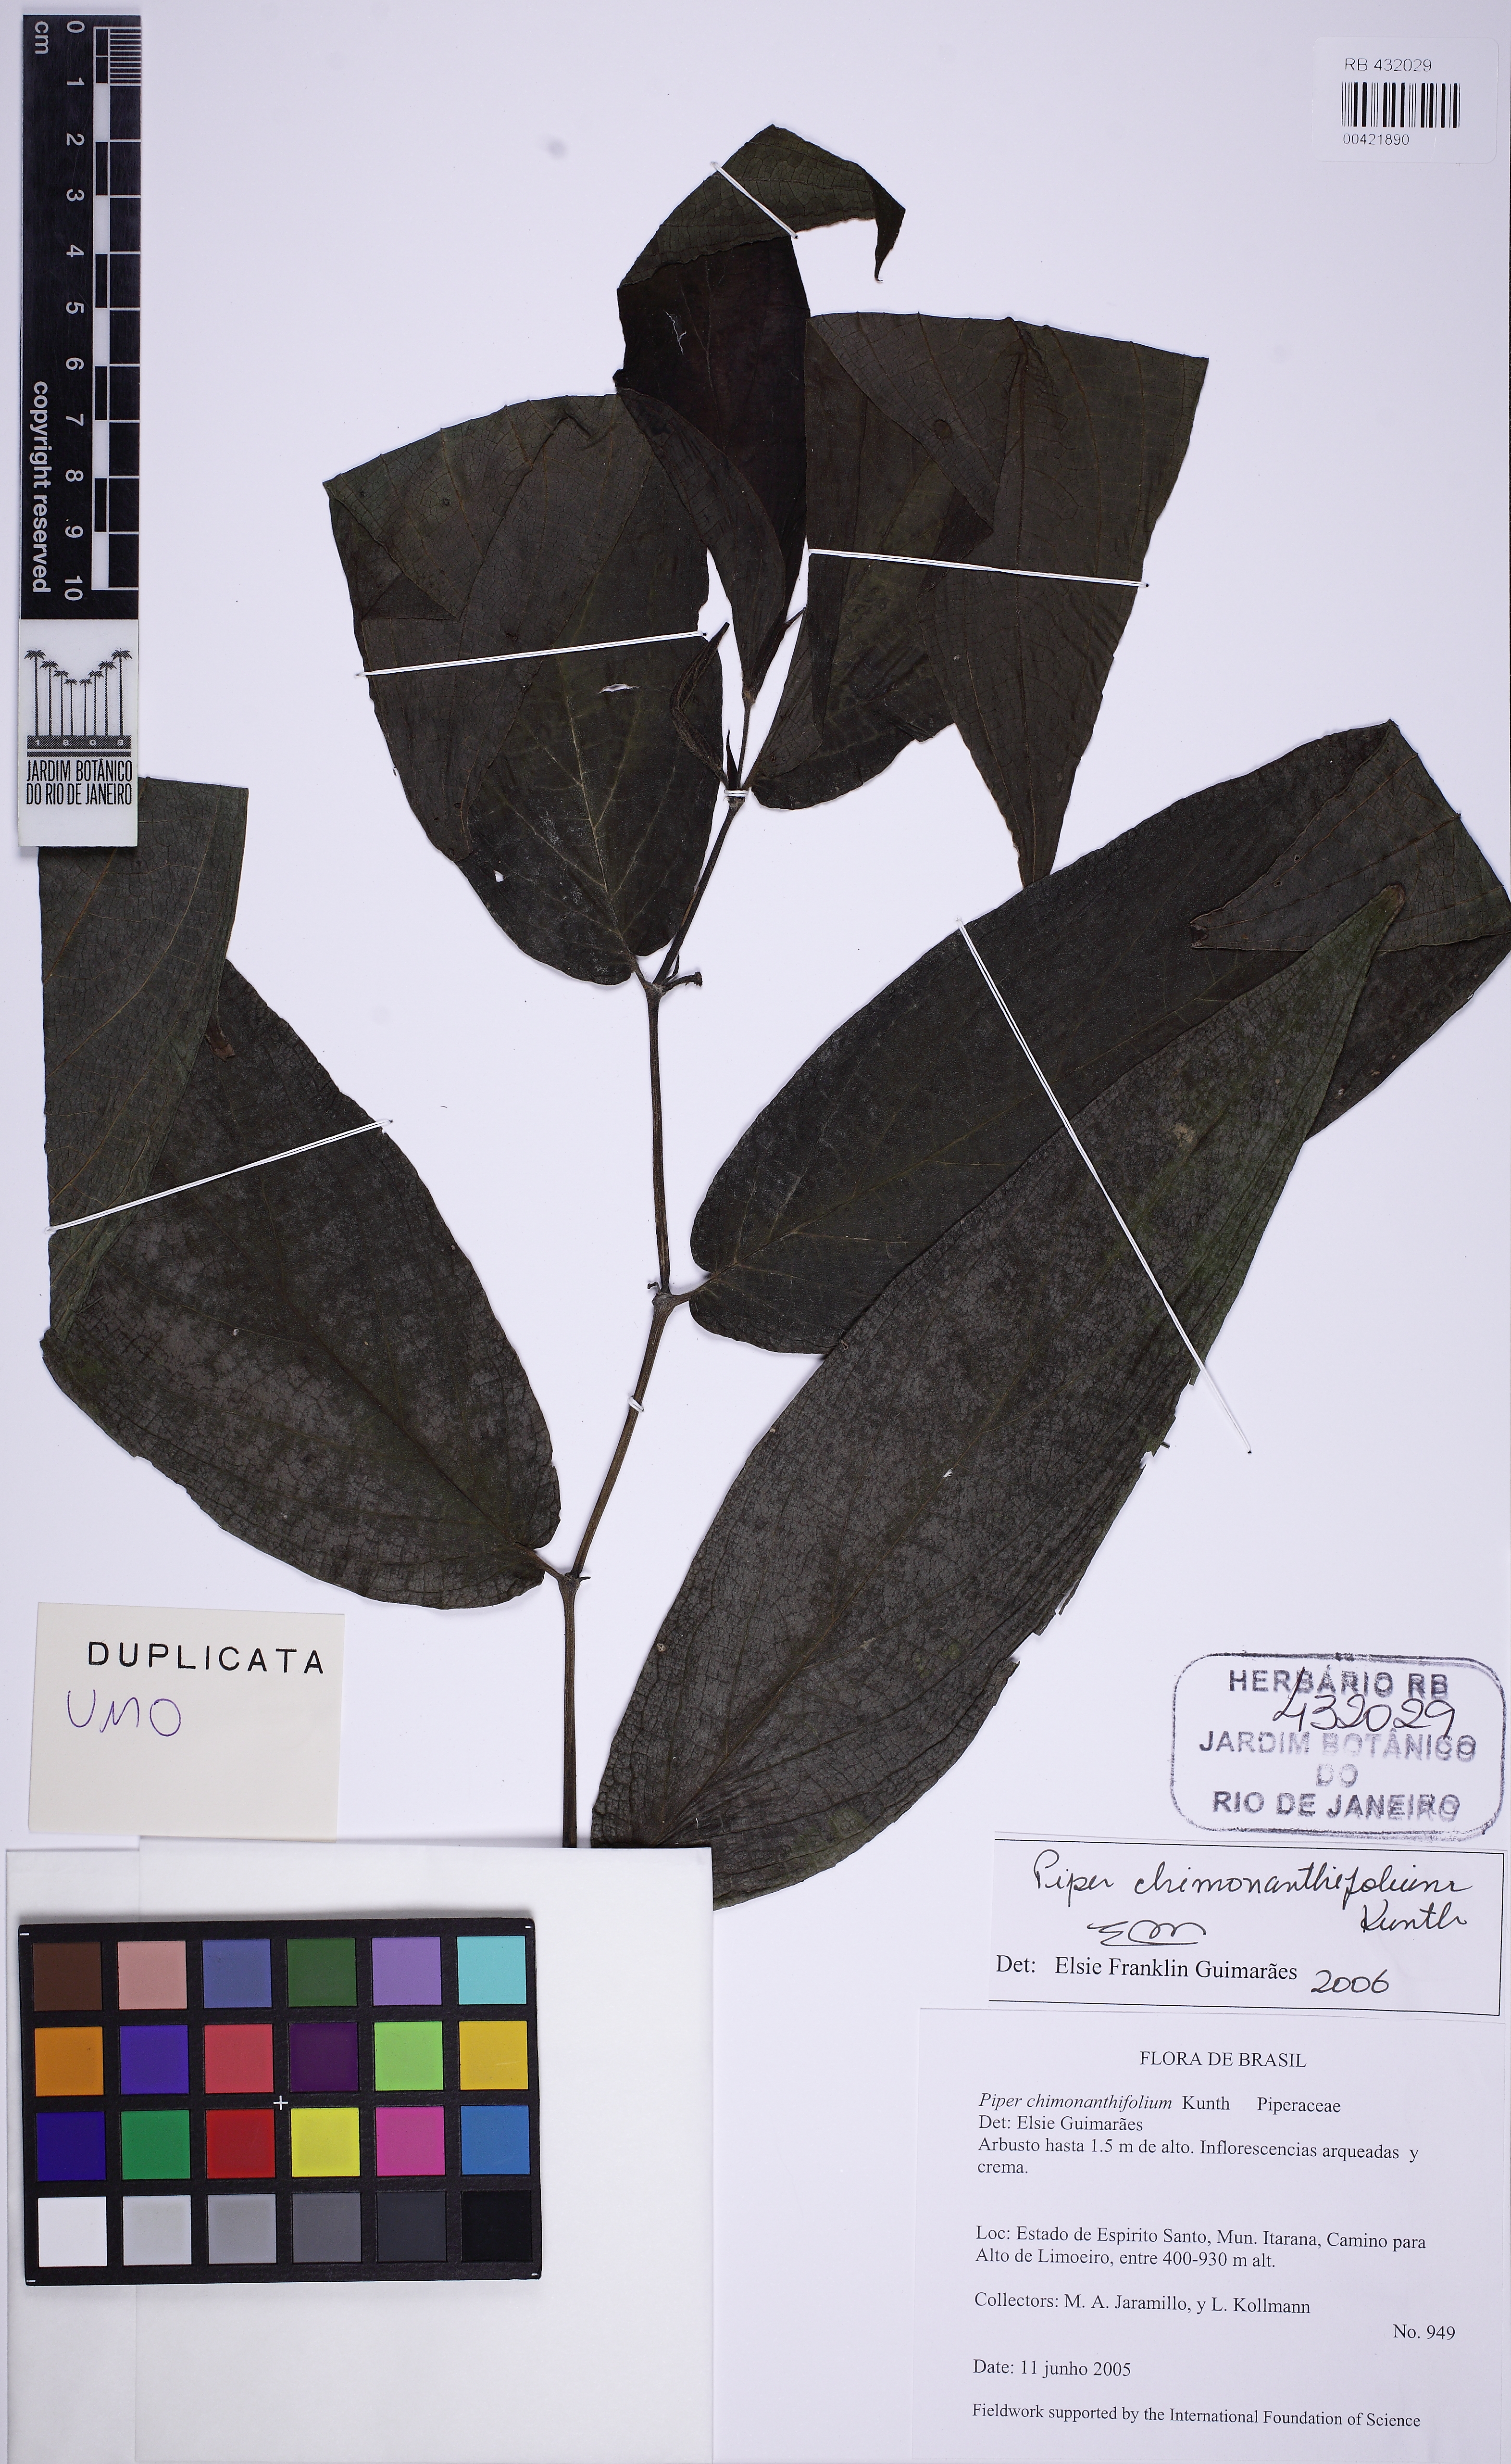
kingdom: Plantae
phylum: Tracheophyta
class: Magnoliopsida
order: Piperales
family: Piperaceae
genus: Piper
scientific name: Piper chimonanthifolium
